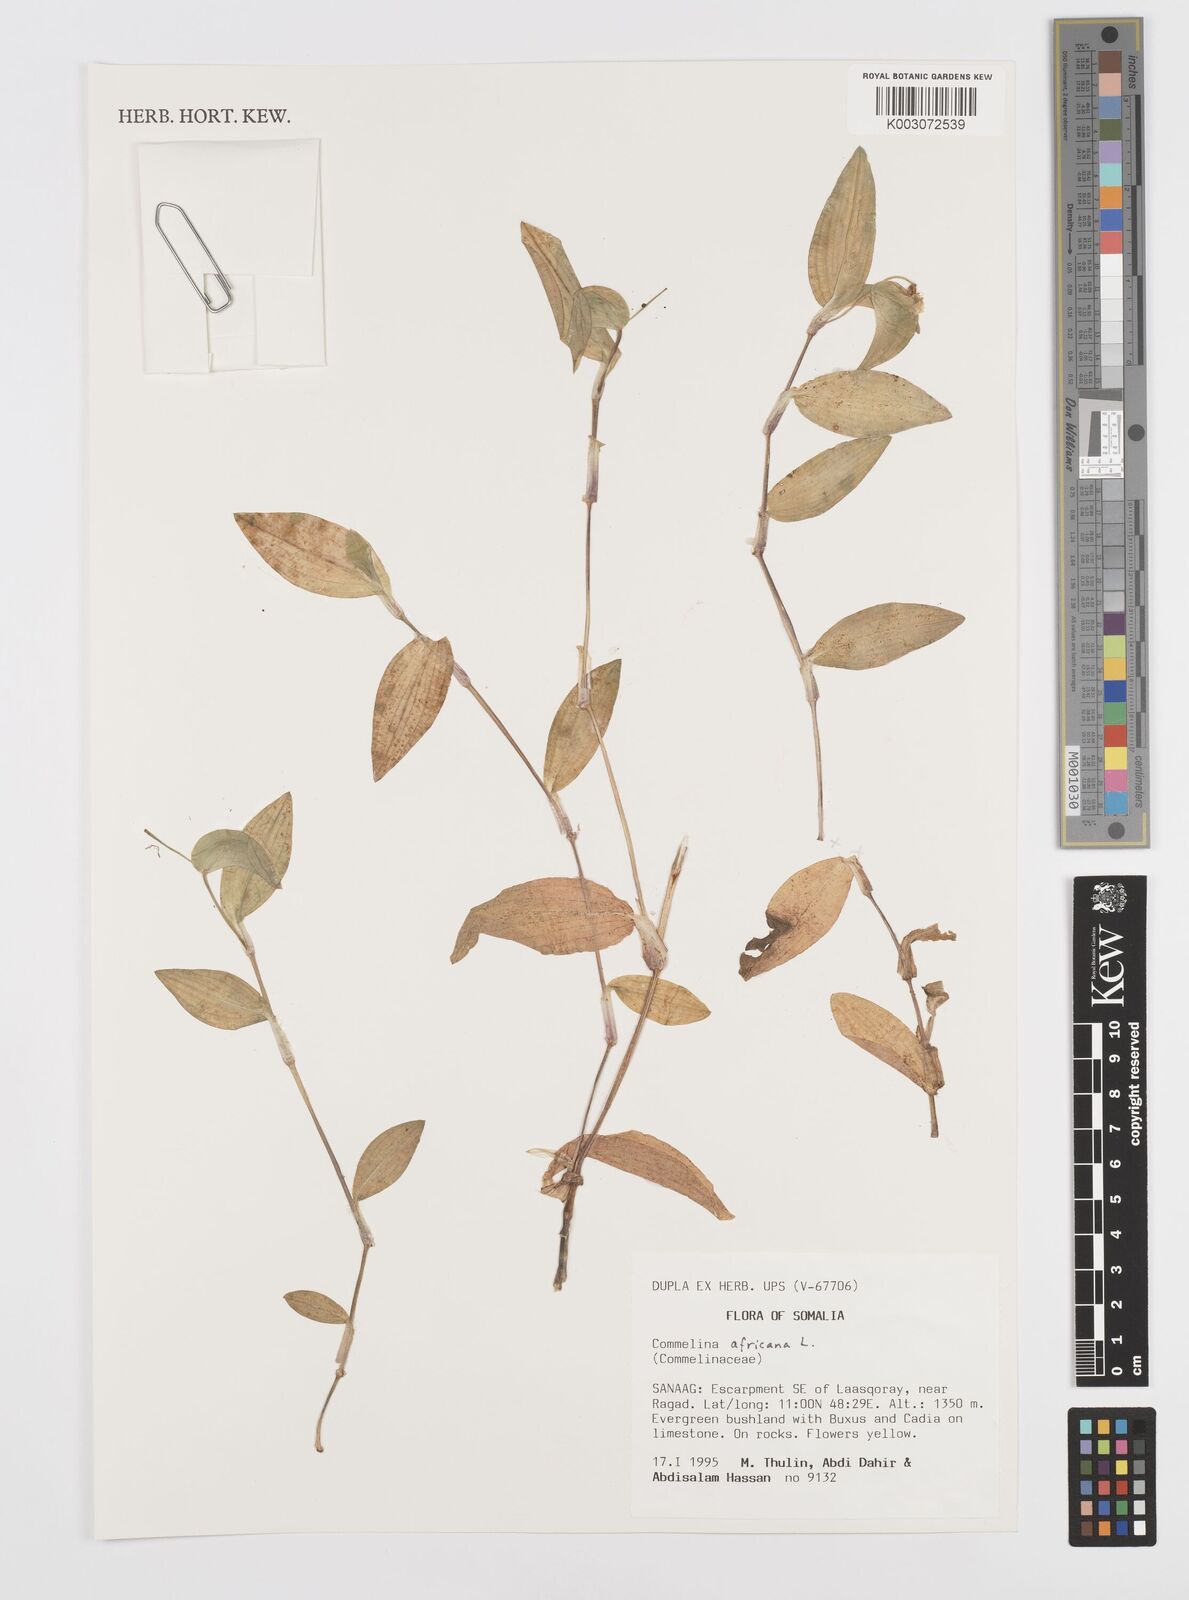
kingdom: Plantae
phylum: Tracheophyta
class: Liliopsida
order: Commelinales
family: Commelinaceae
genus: Commelina
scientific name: Commelina africana
